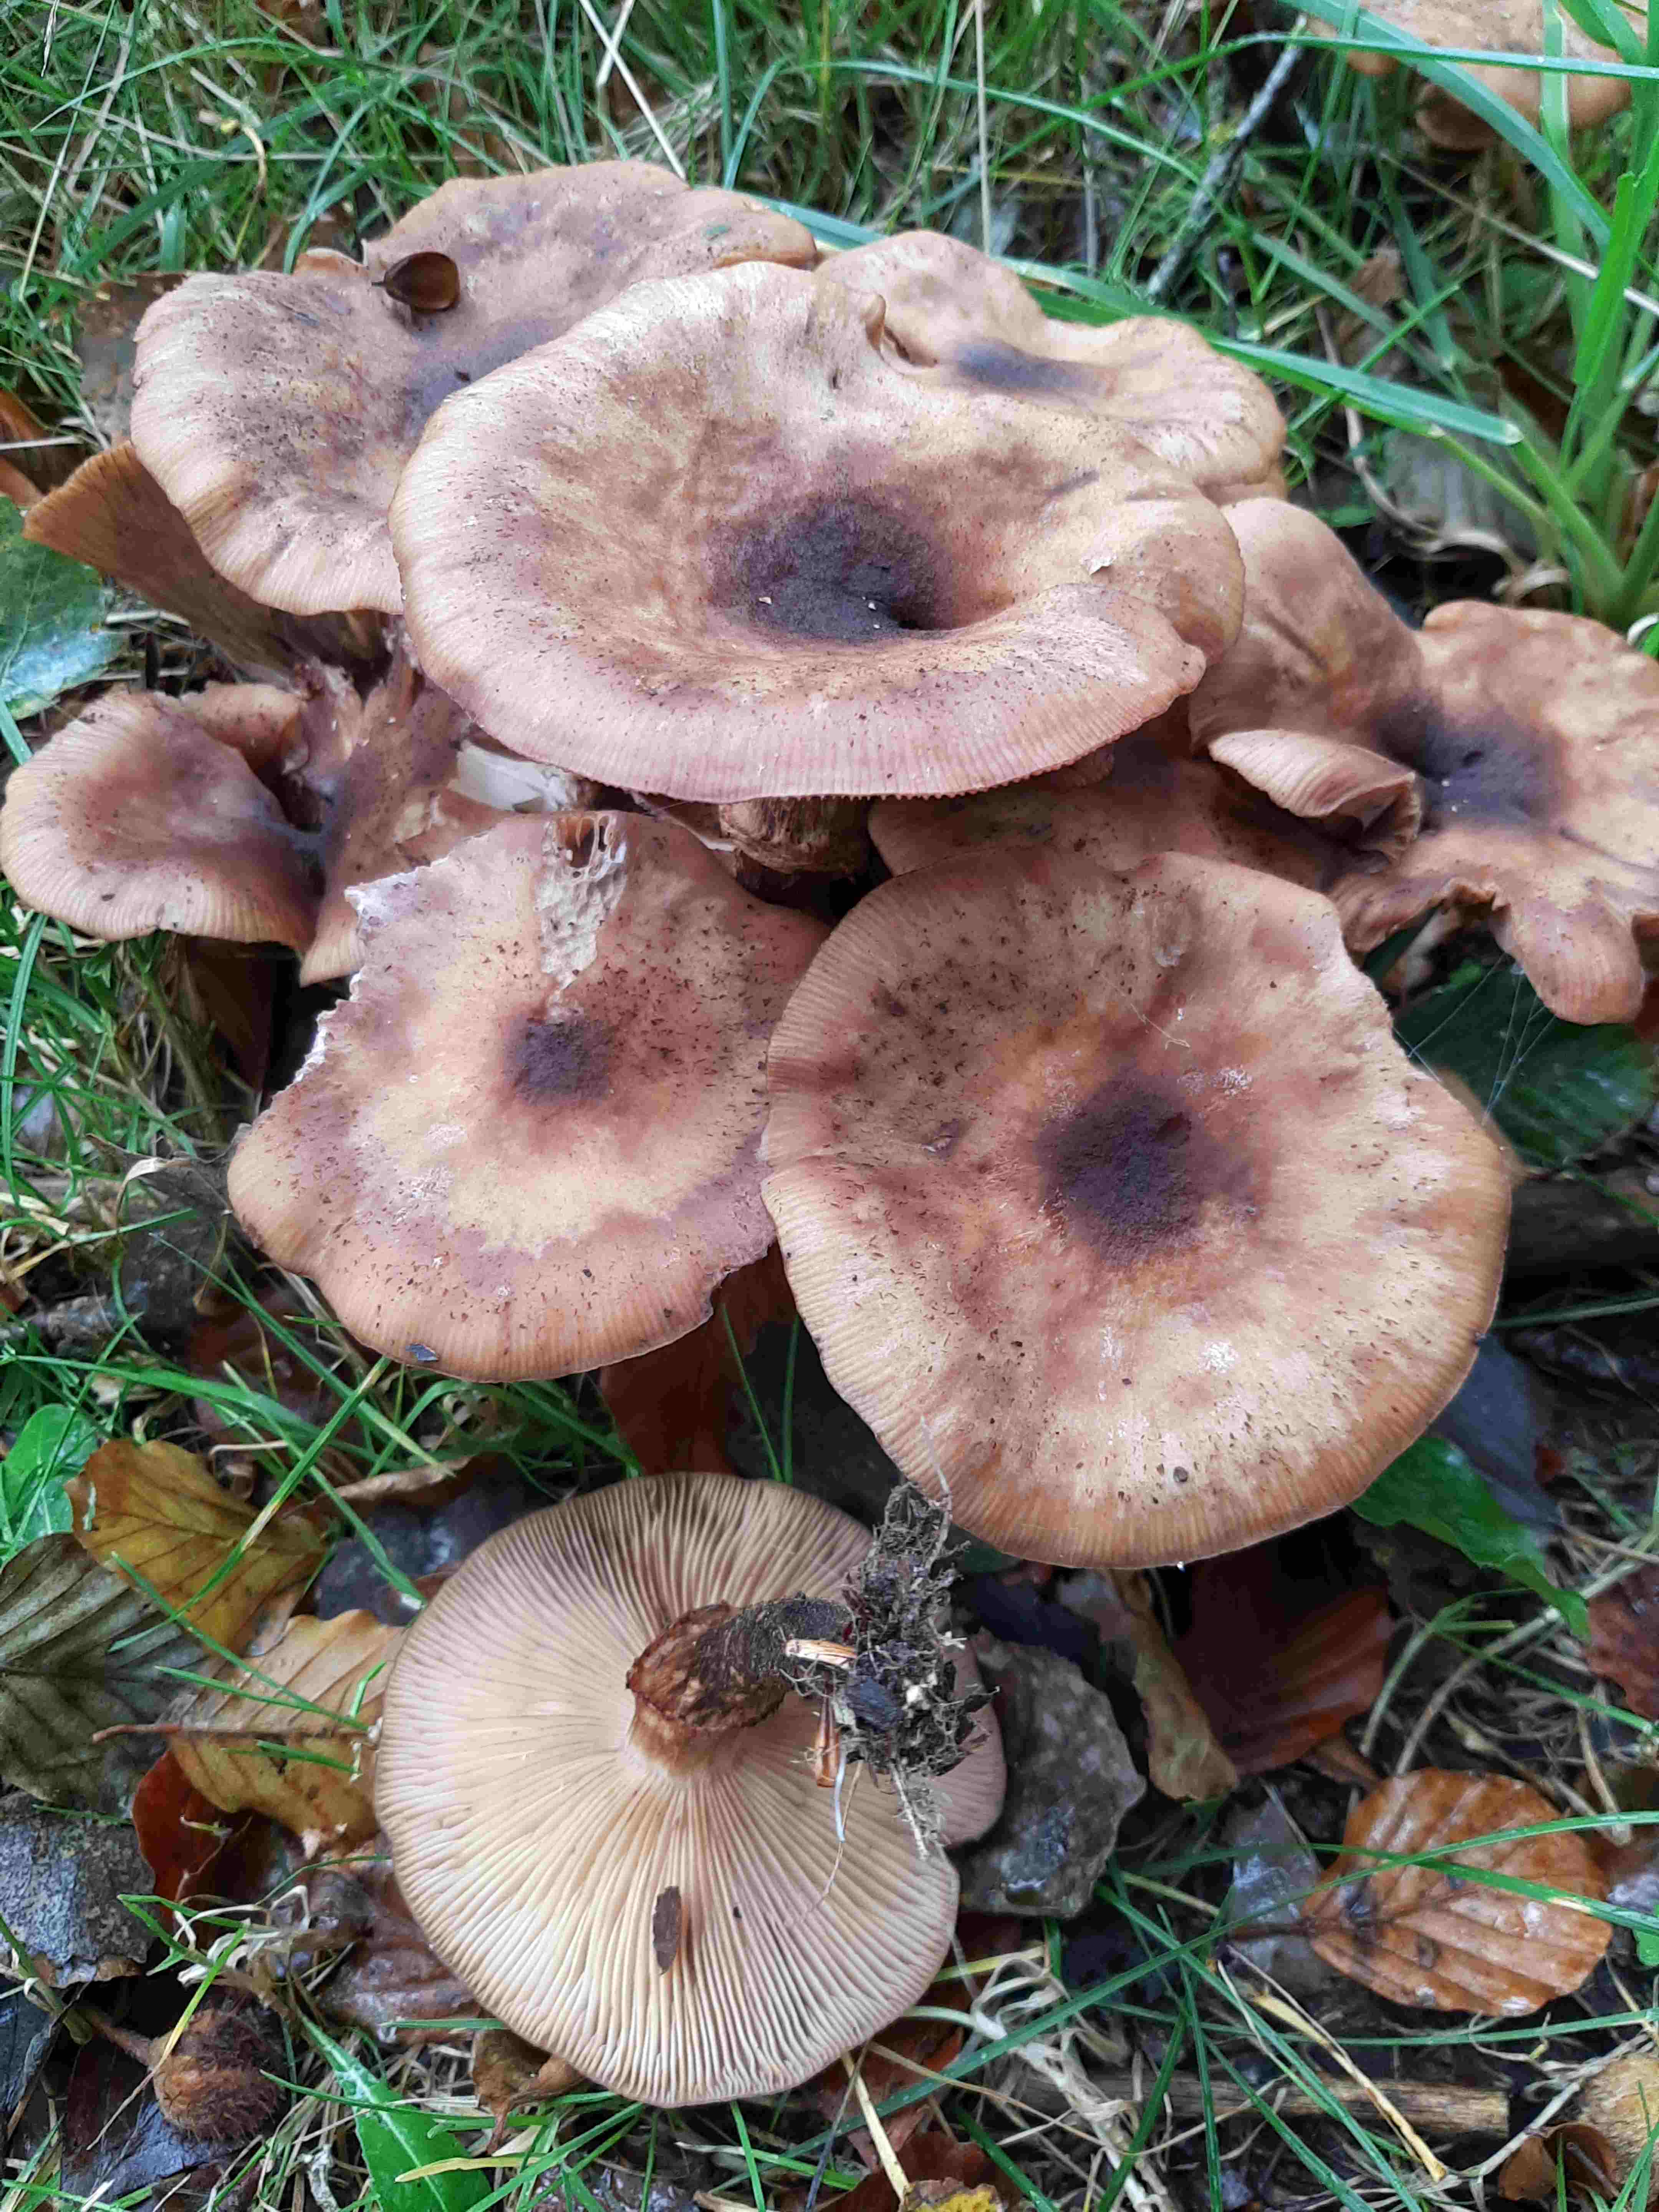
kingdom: Fungi
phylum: Basidiomycota
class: Agaricomycetes
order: Agaricales
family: Physalacriaceae
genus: Armillaria
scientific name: Armillaria lutea
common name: køllestokket honningsvamp
